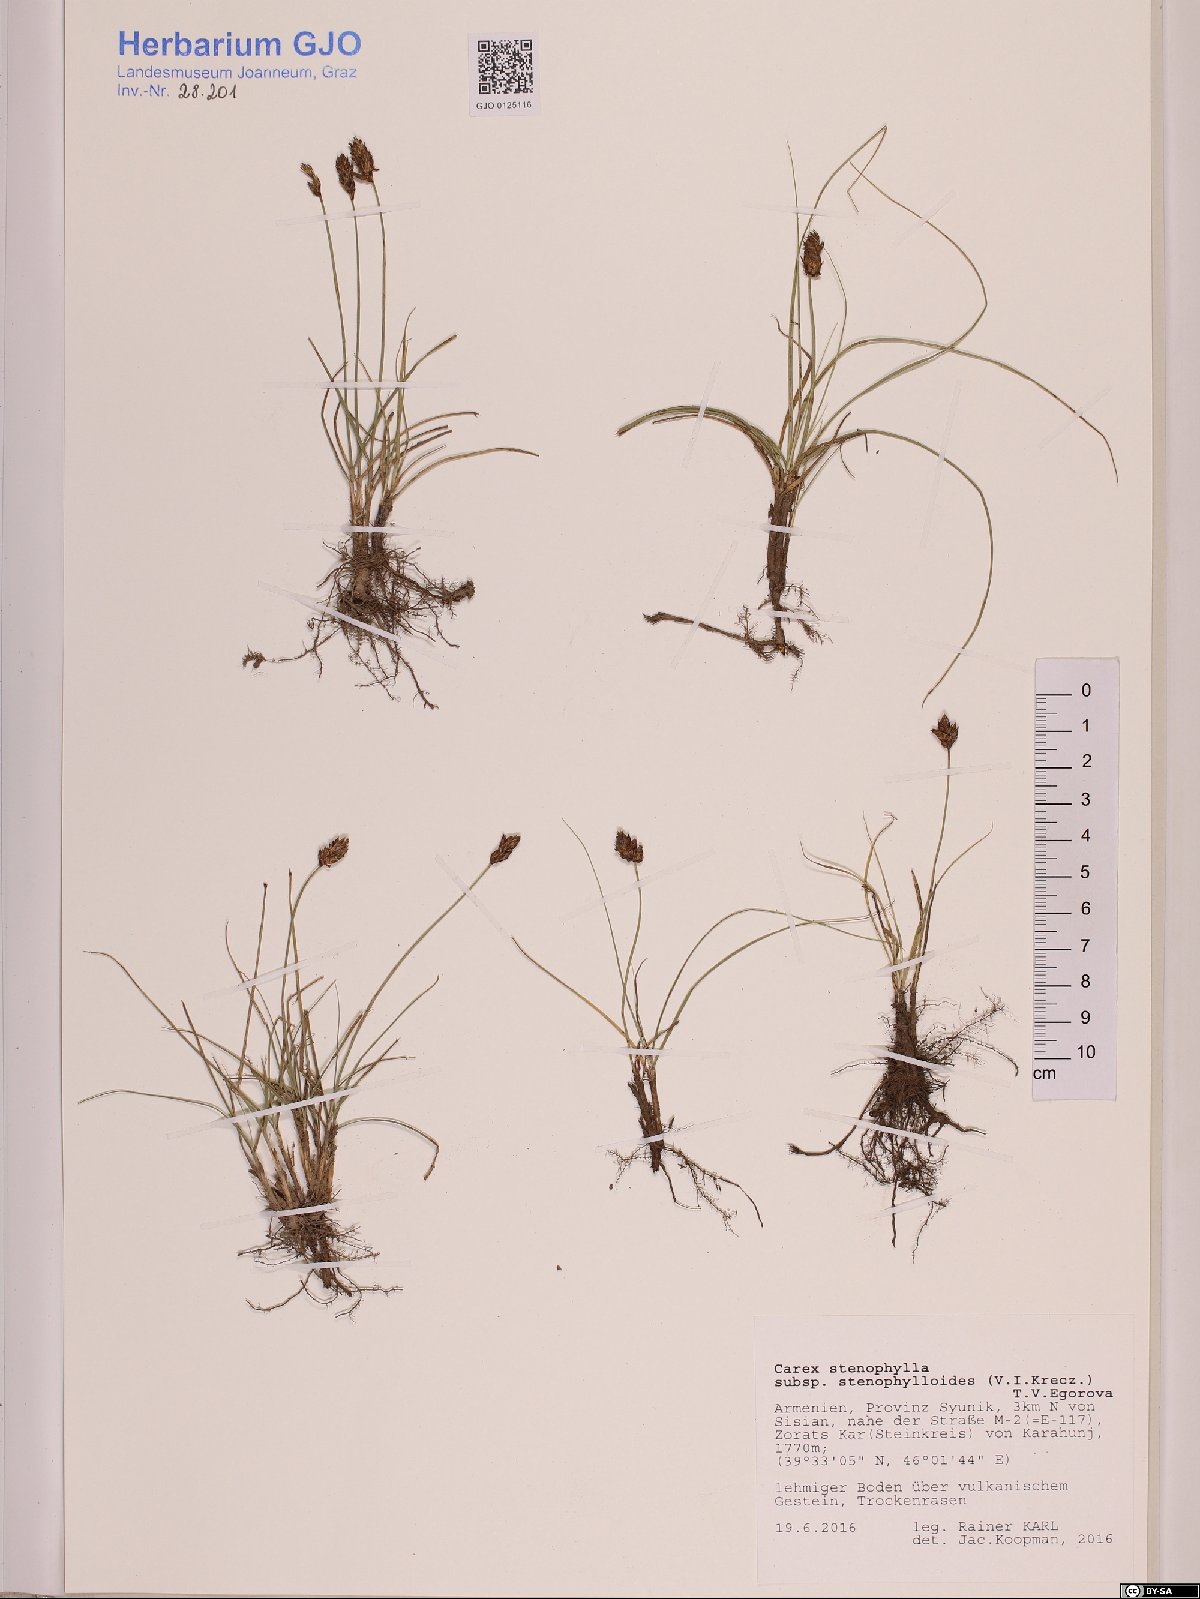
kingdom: Plantae
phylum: Tracheophyta
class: Liliopsida
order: Poales
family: Cyperaceae
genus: Carex
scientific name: Carex stenophylla
